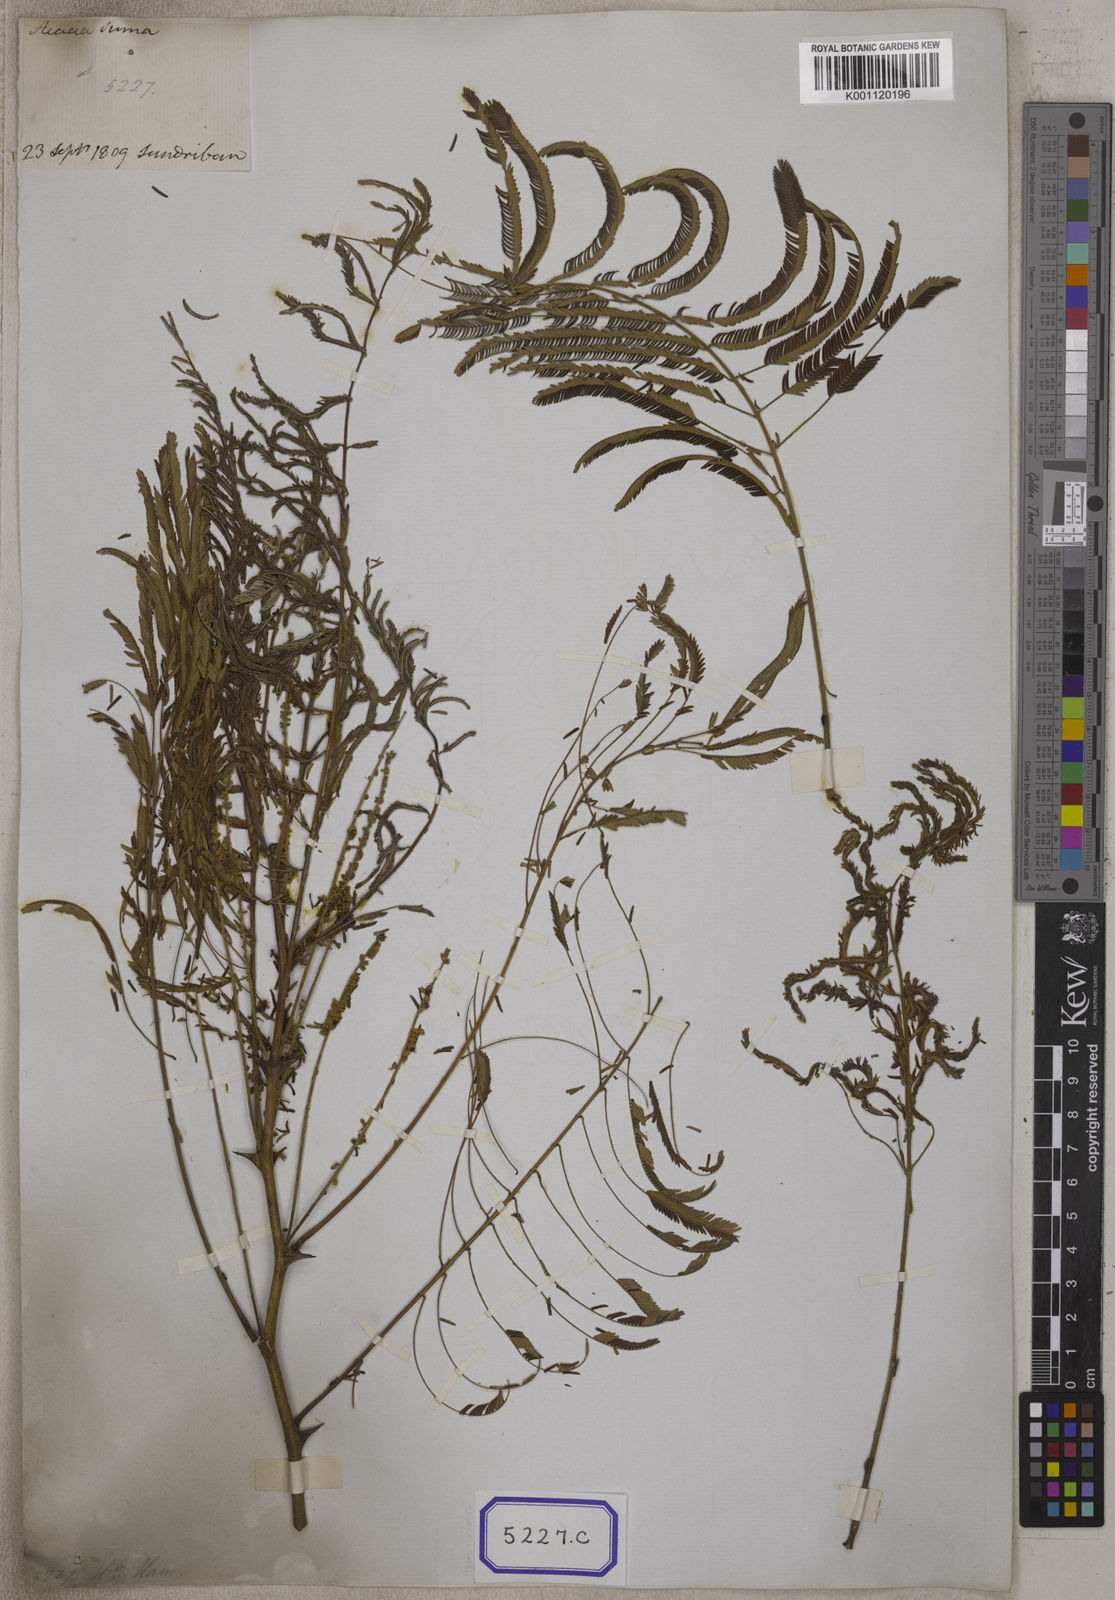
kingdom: Plantae
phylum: Tracheophyta
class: Magnoliopsida
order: Fabales
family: Fabaceae
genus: Senegalia
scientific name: Senegalia chundra
